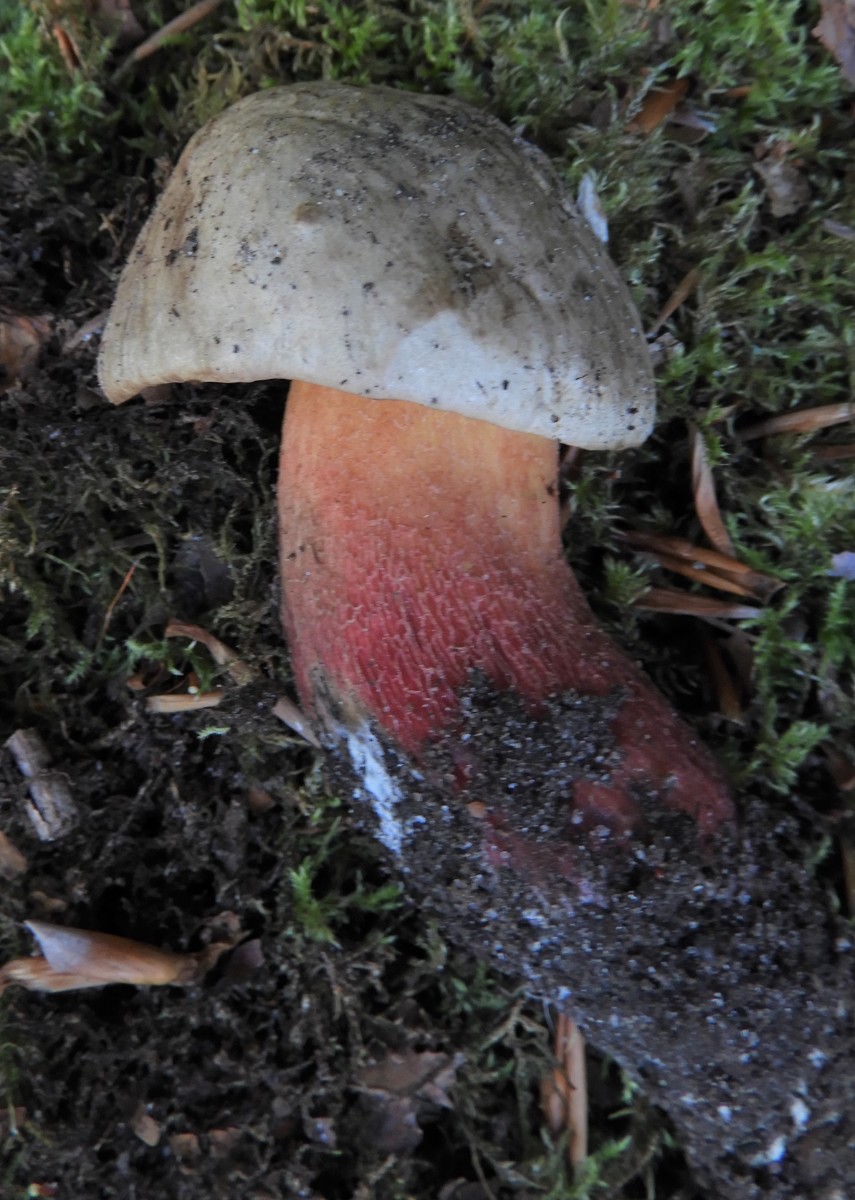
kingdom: Fungi
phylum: Basidiomycota
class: Agaricomycetes
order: Boletales
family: Boletaceae
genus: Caloboletus
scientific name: Caloboletus calopus
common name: skønfodet rørhat
